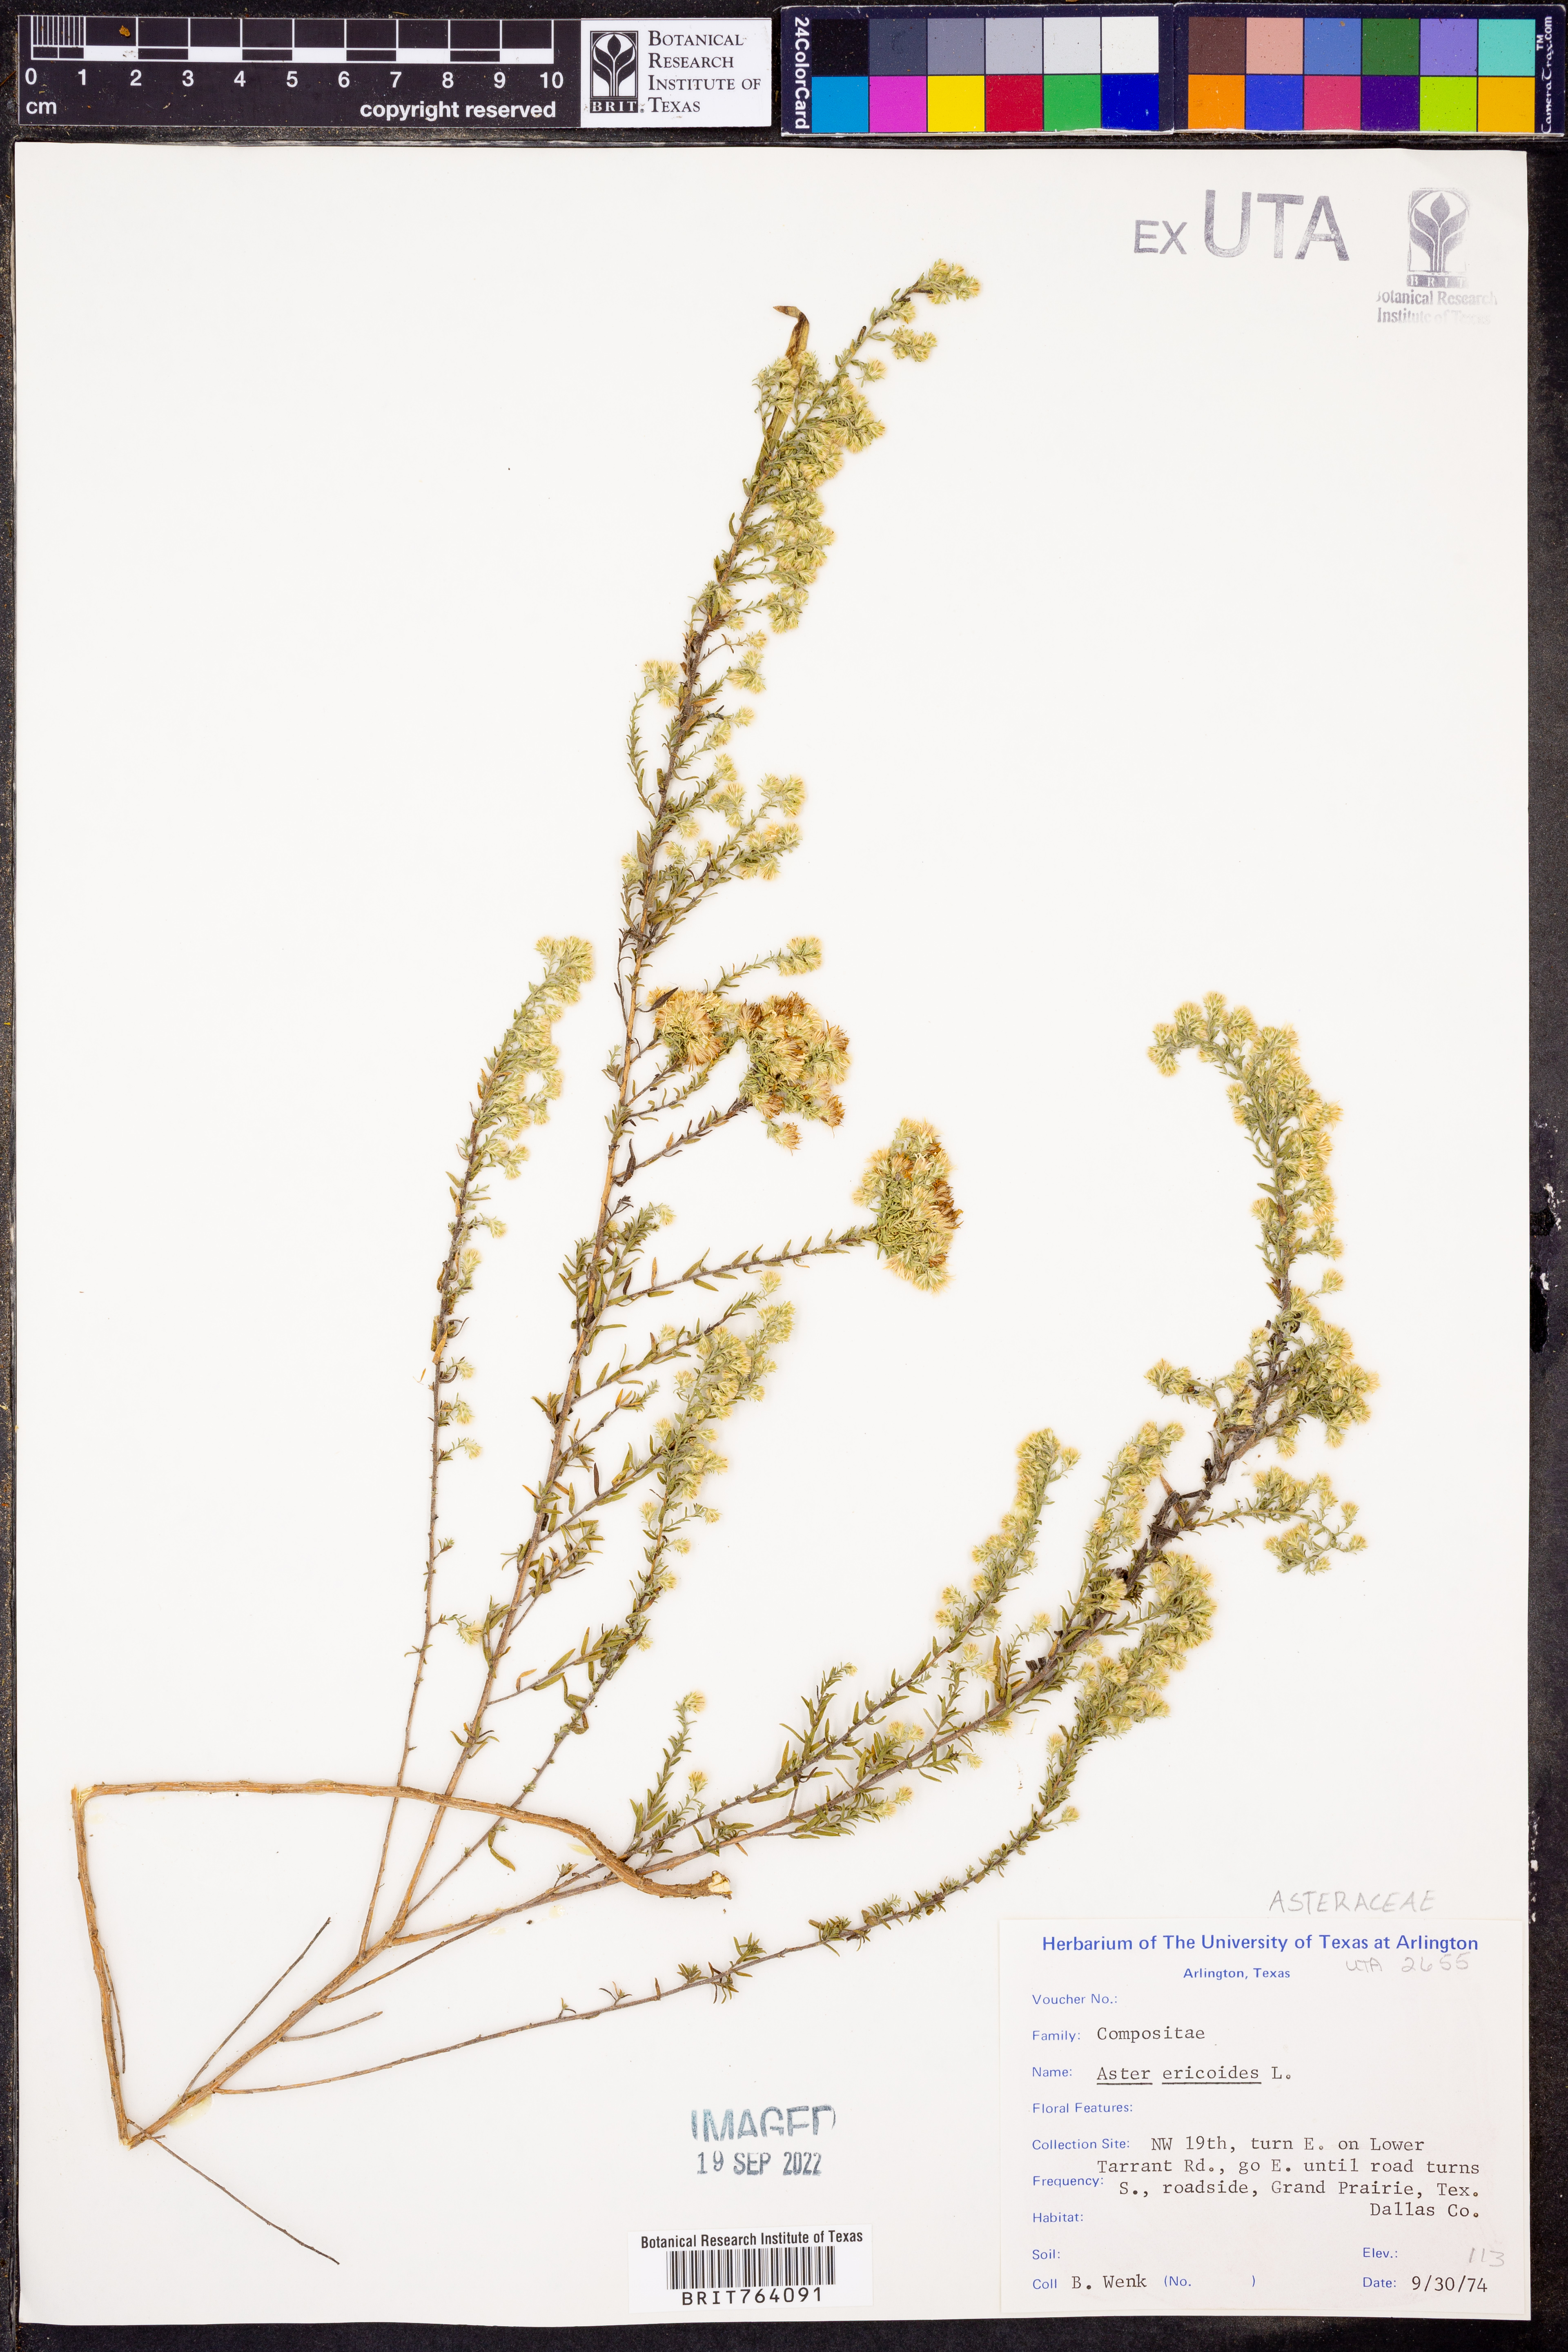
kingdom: Plantae
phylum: Tracheophyta
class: Magnoliopsida
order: Asterales
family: Asteraceae
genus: Symphyotrichum
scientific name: Symphyotrichum ericoides
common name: Heath aster
